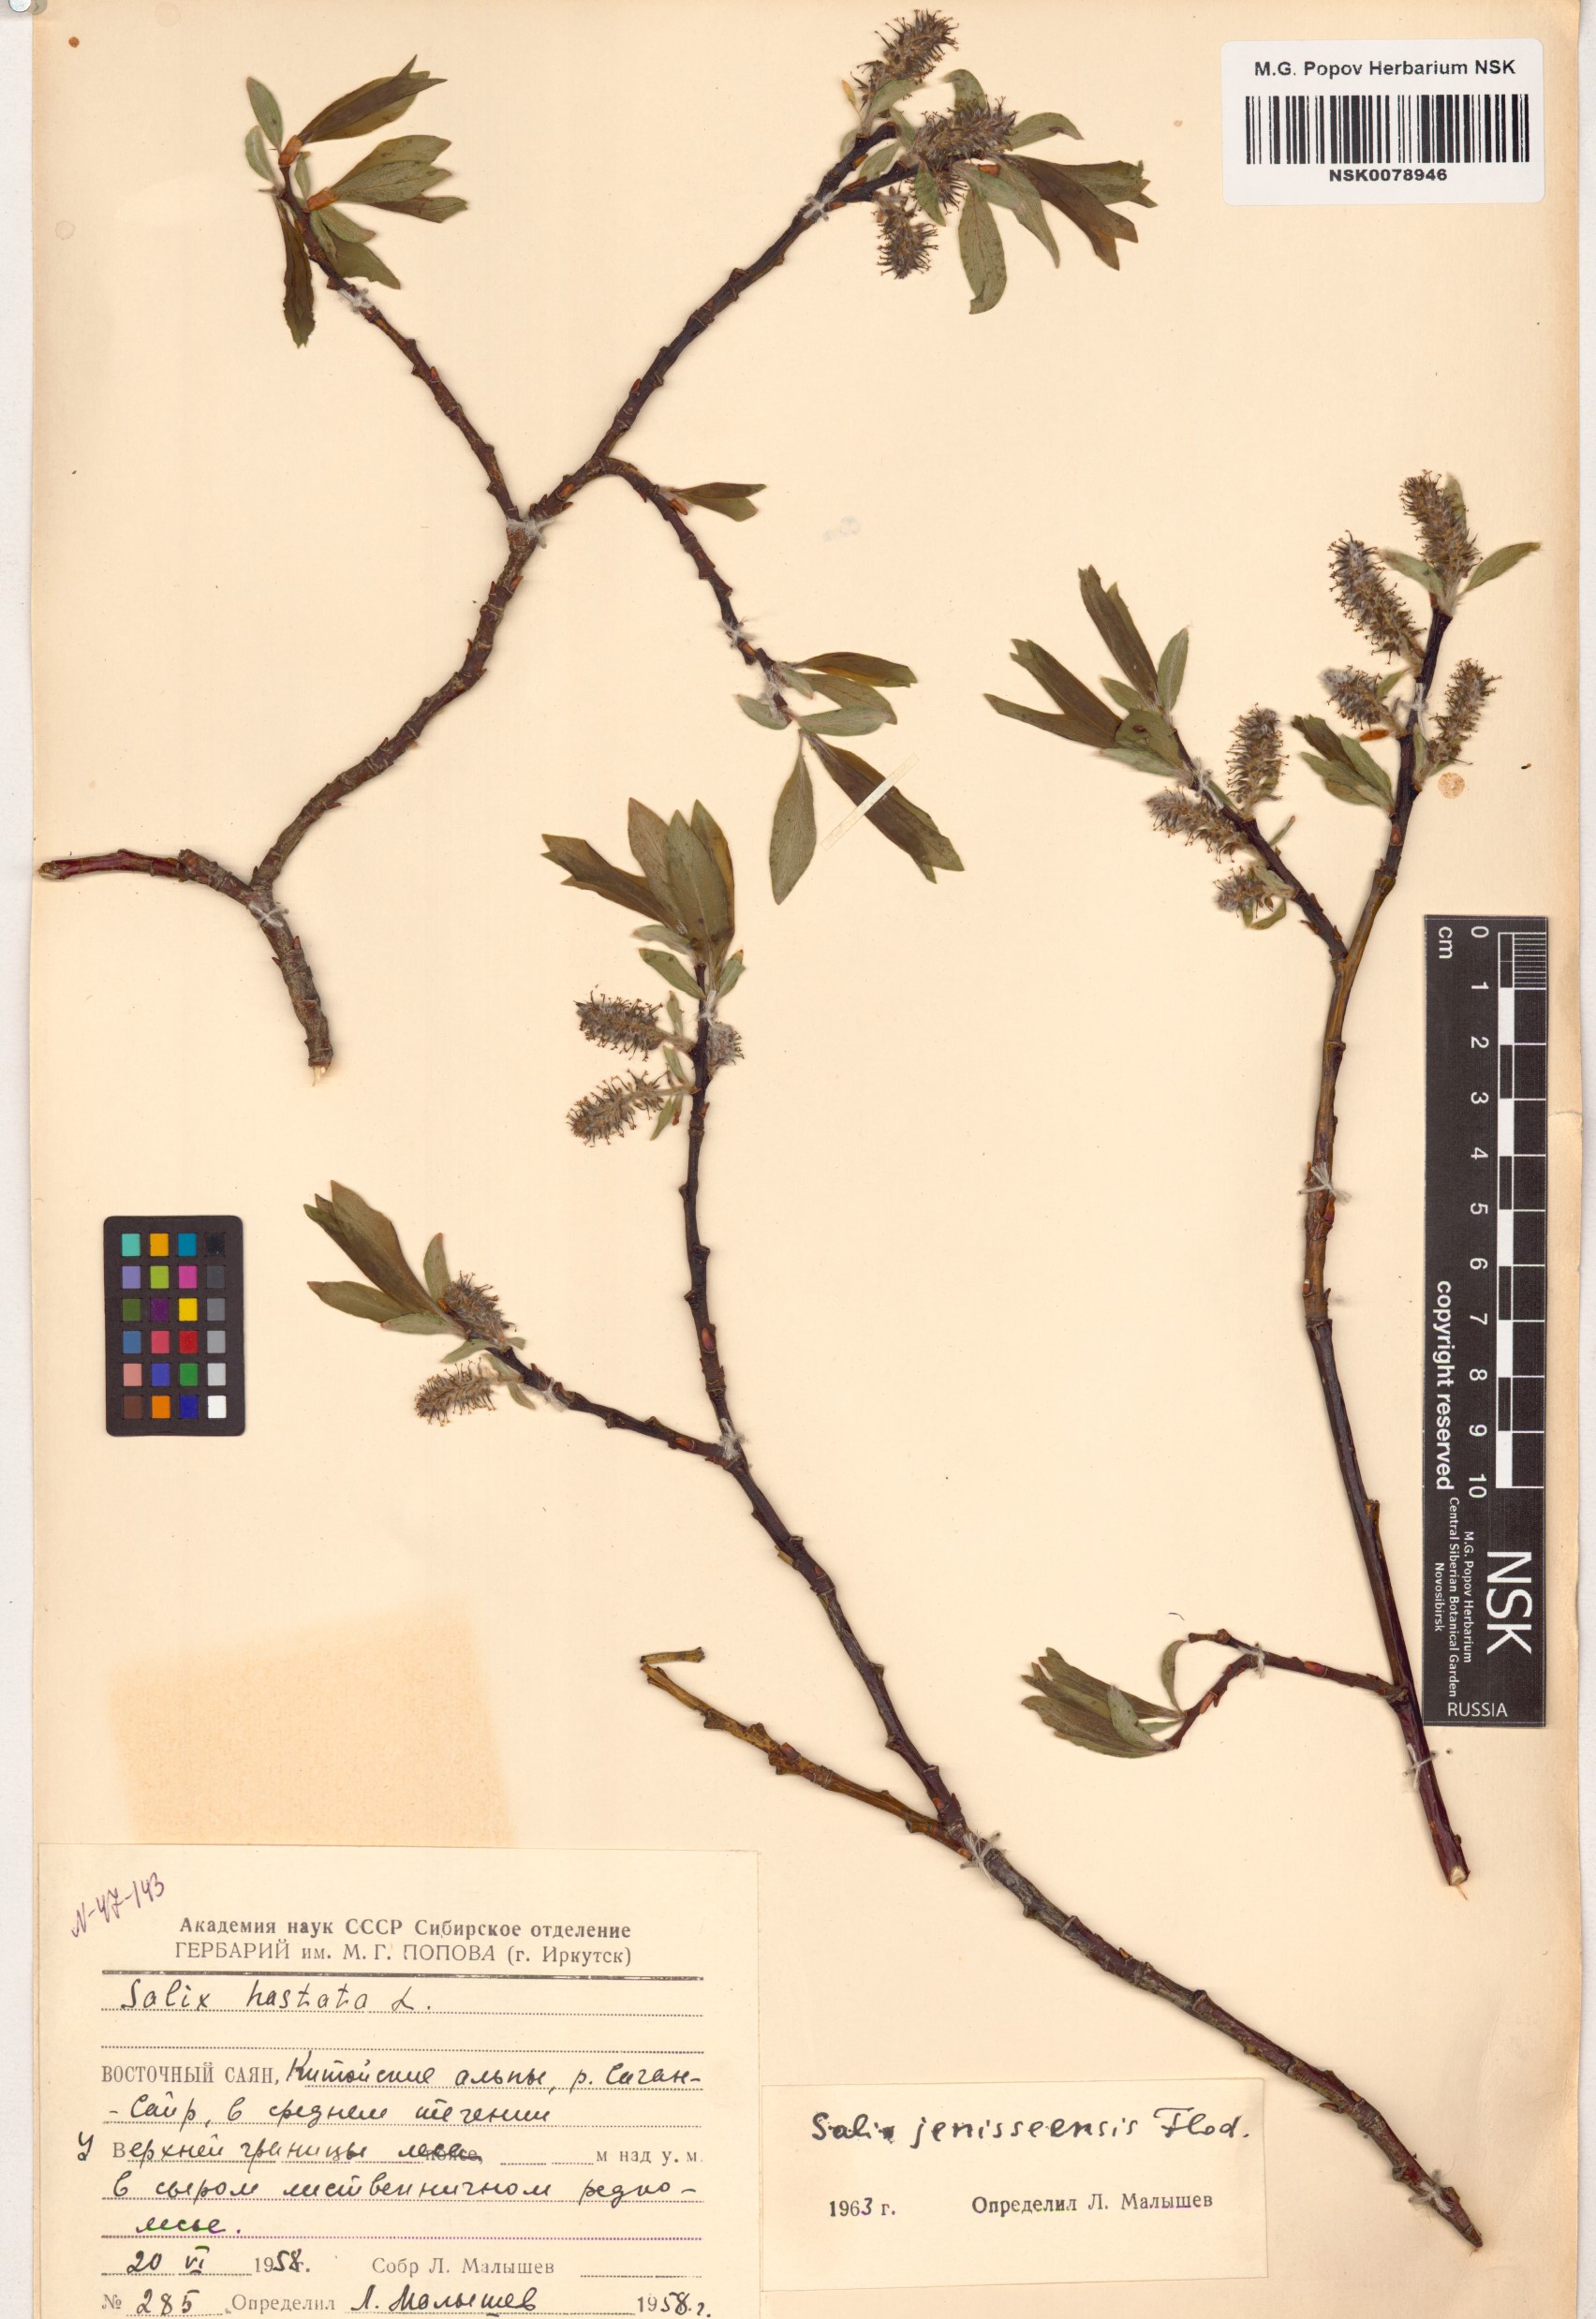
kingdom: Plantae
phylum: Tracheophyta
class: Magnoliopsida
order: Malpighiales
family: Salicaceae
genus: Salix
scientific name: Salix jenisseensis
